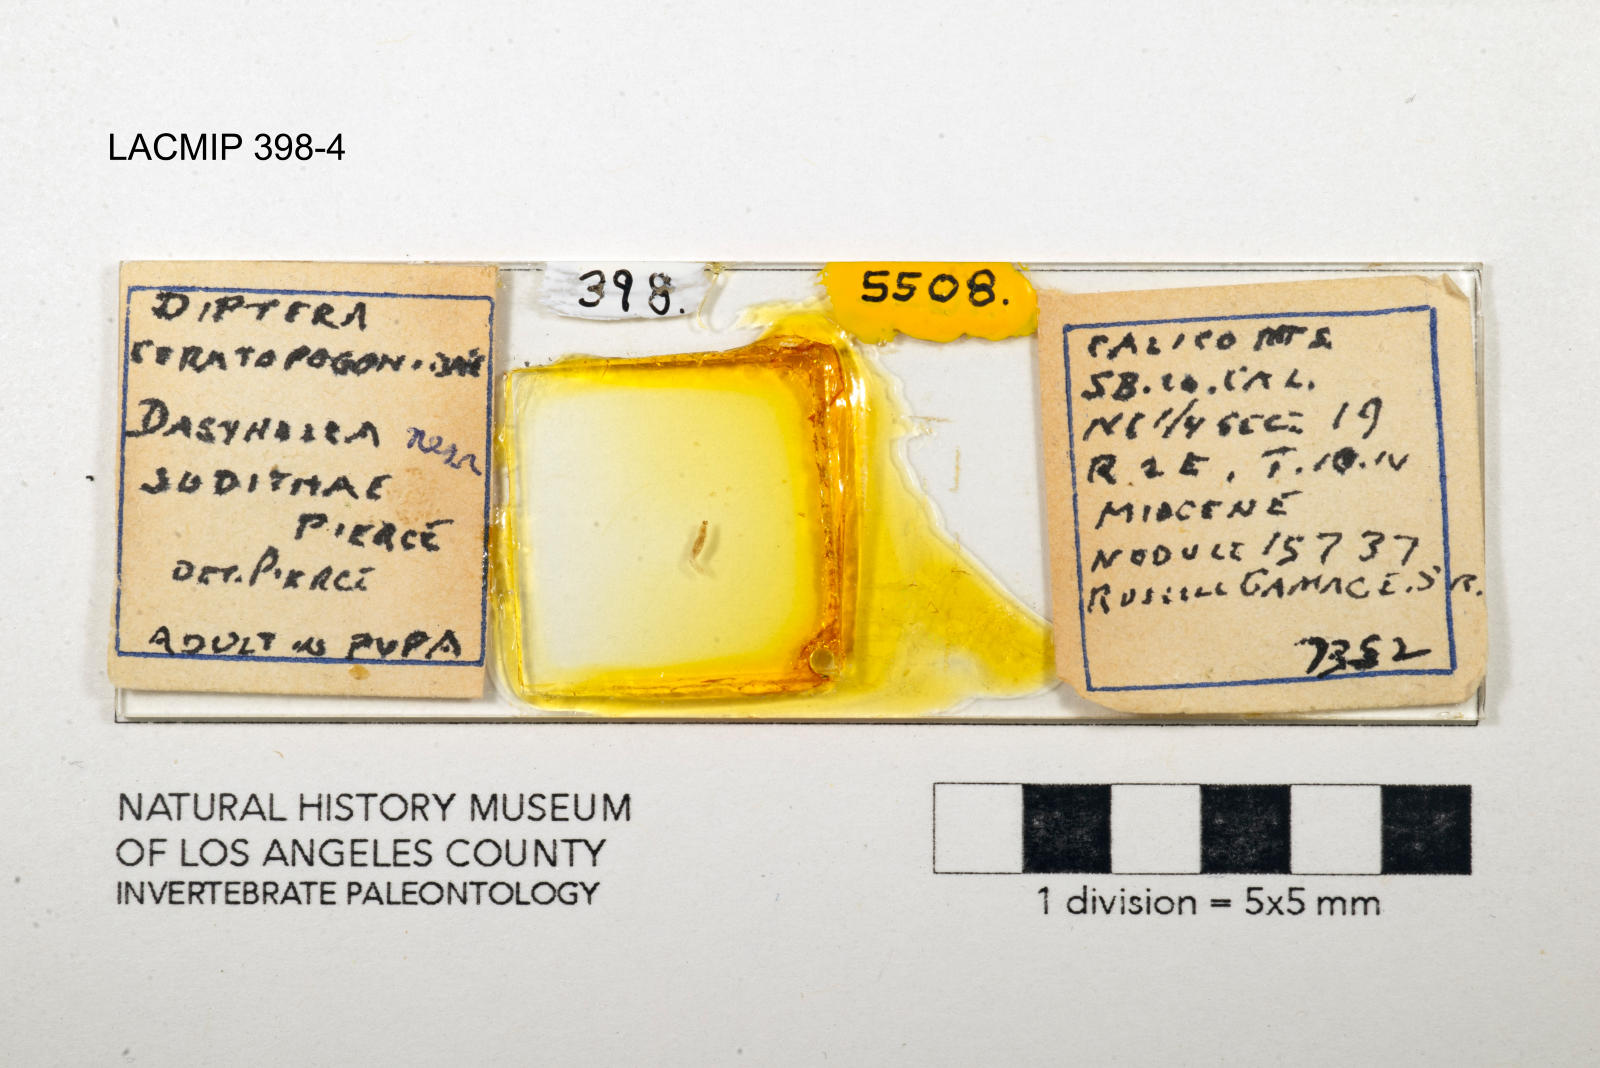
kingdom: Animalia
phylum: Arthropoda
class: Insecta
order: Diptera
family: Ceratopogonidae
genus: Dasyhelea
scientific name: Dasyhelea judithae
